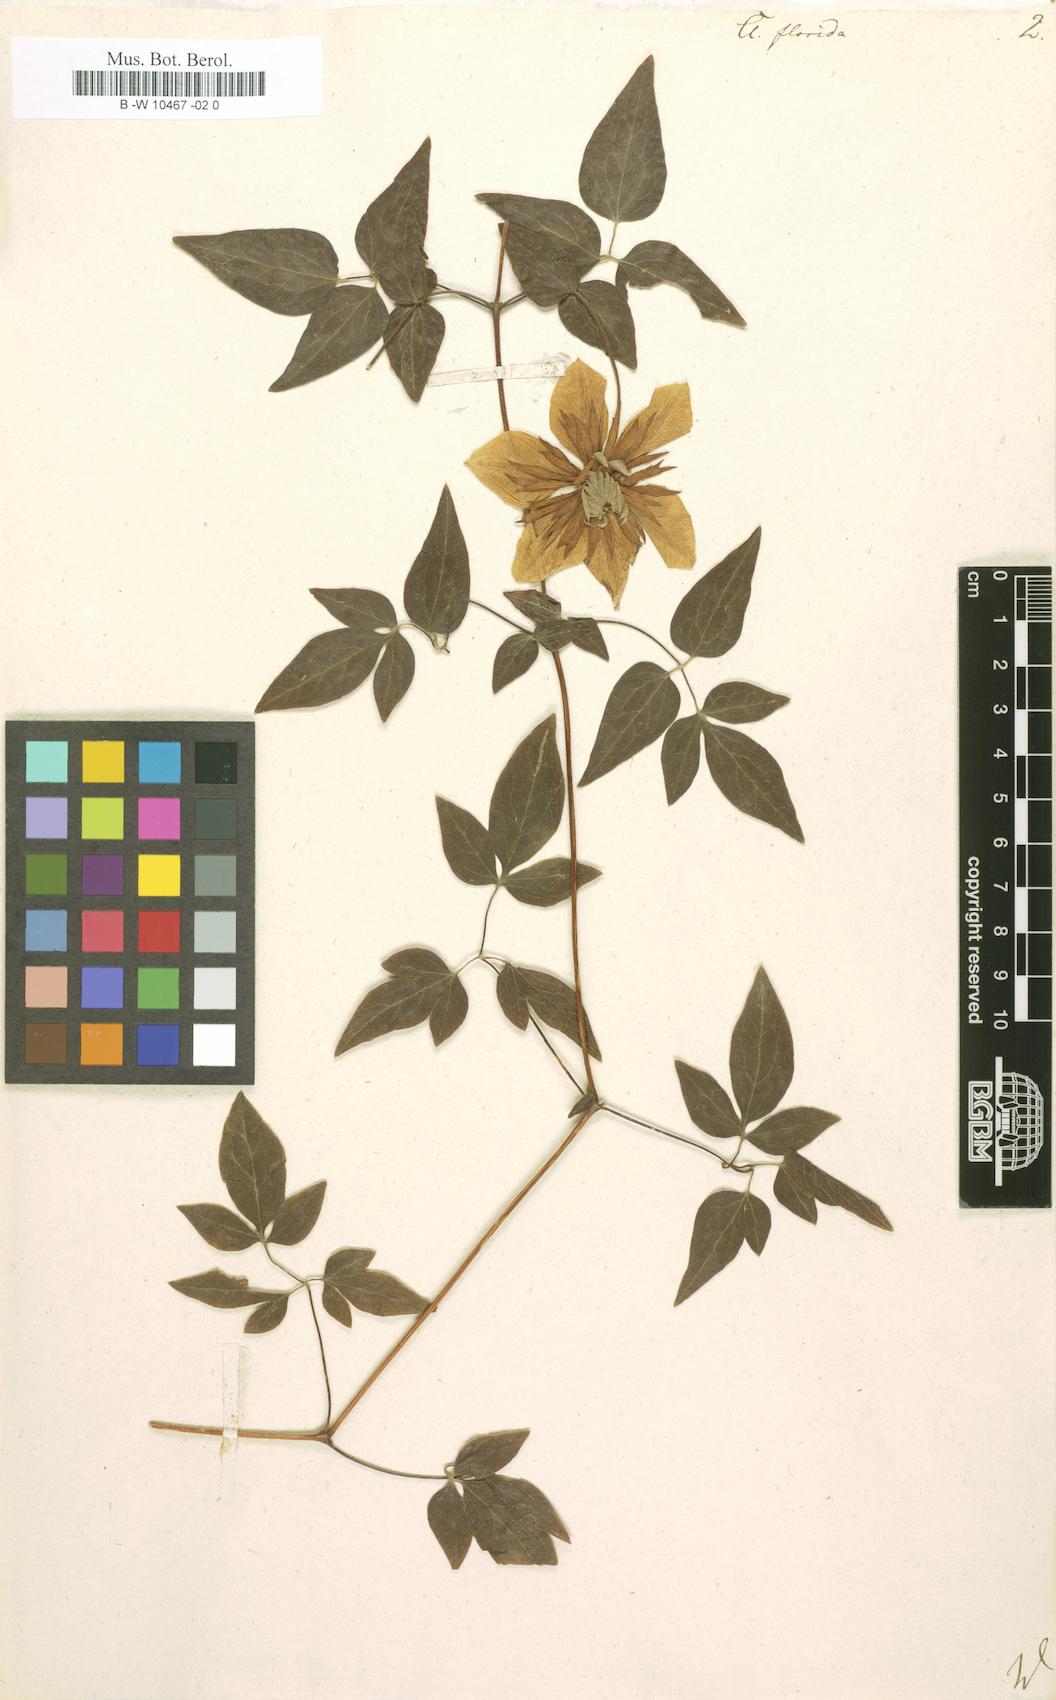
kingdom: Plantae
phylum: Tracheophyta
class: Magnoliopsida
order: Ranunculales
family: Ranunculaceae
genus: Clematis
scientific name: Clematis florida
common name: Asian virginsbower
